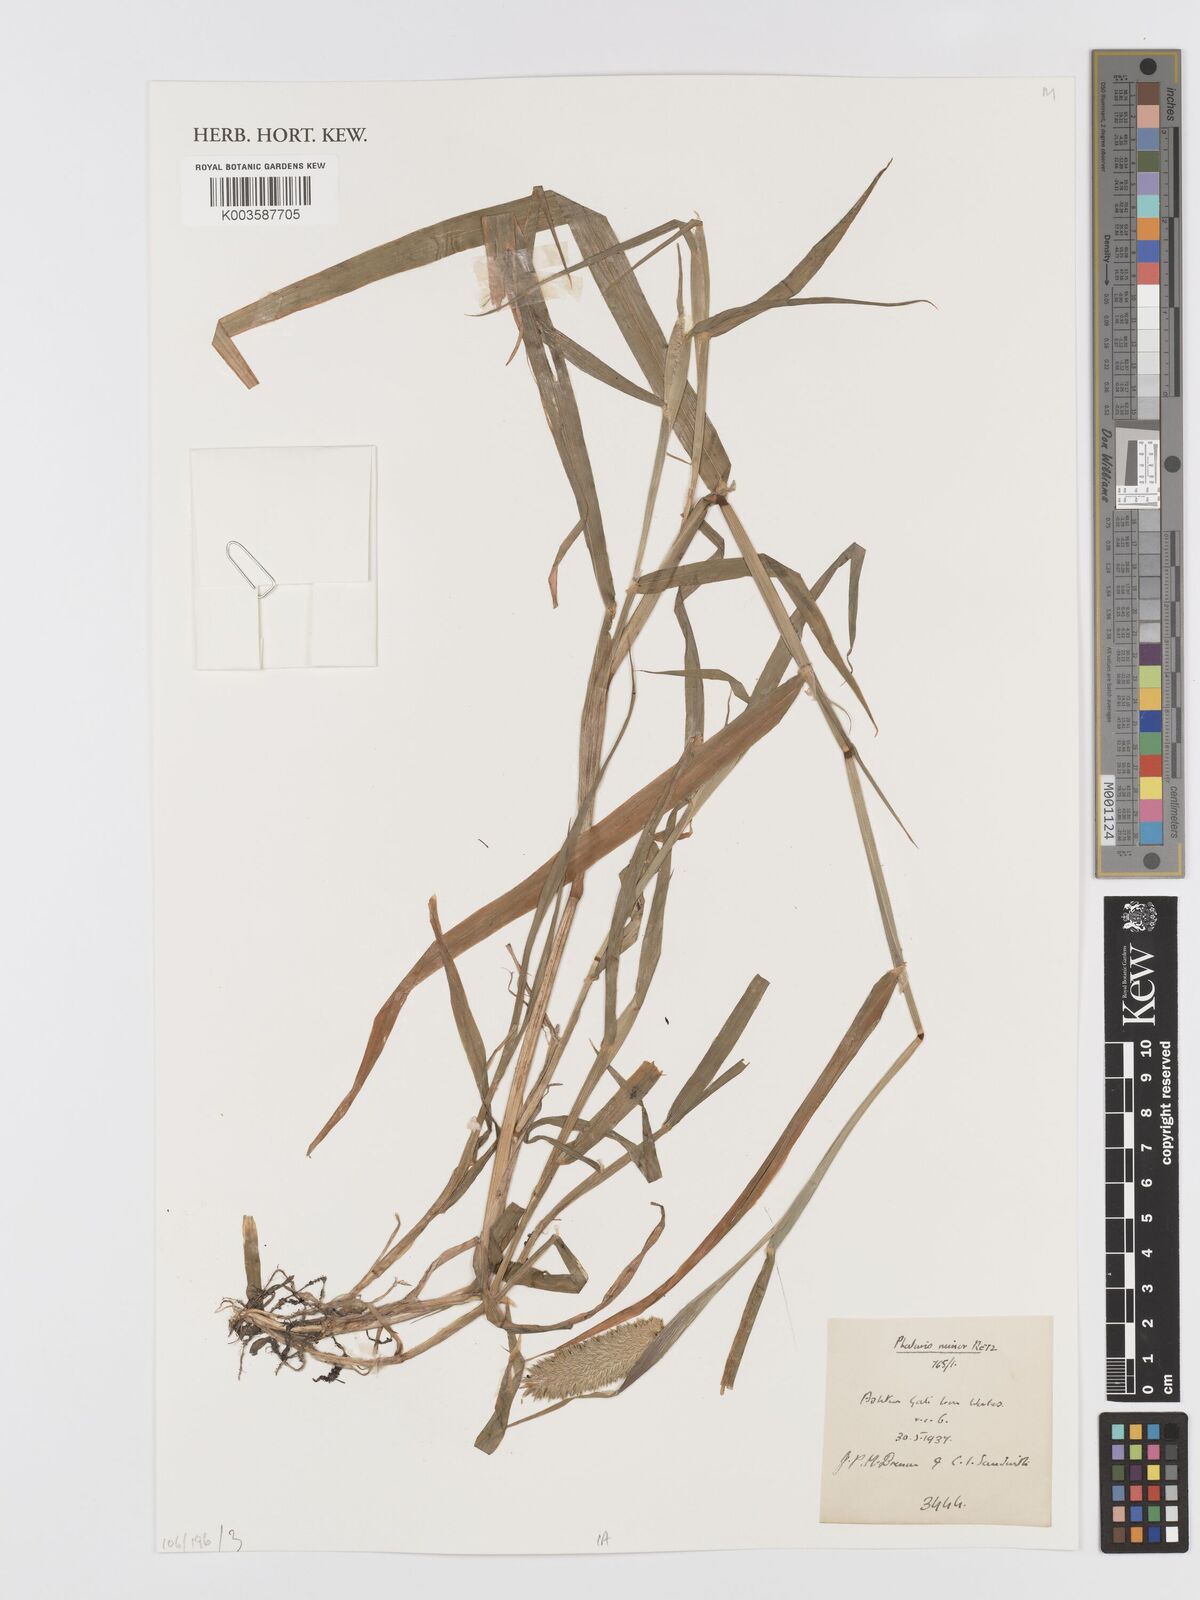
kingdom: Plantae
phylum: Tracheophyta
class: Liliopsida
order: Poales
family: Poaceae
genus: Phalaris
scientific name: Phalaris minor
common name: Littleseed canarygrass
